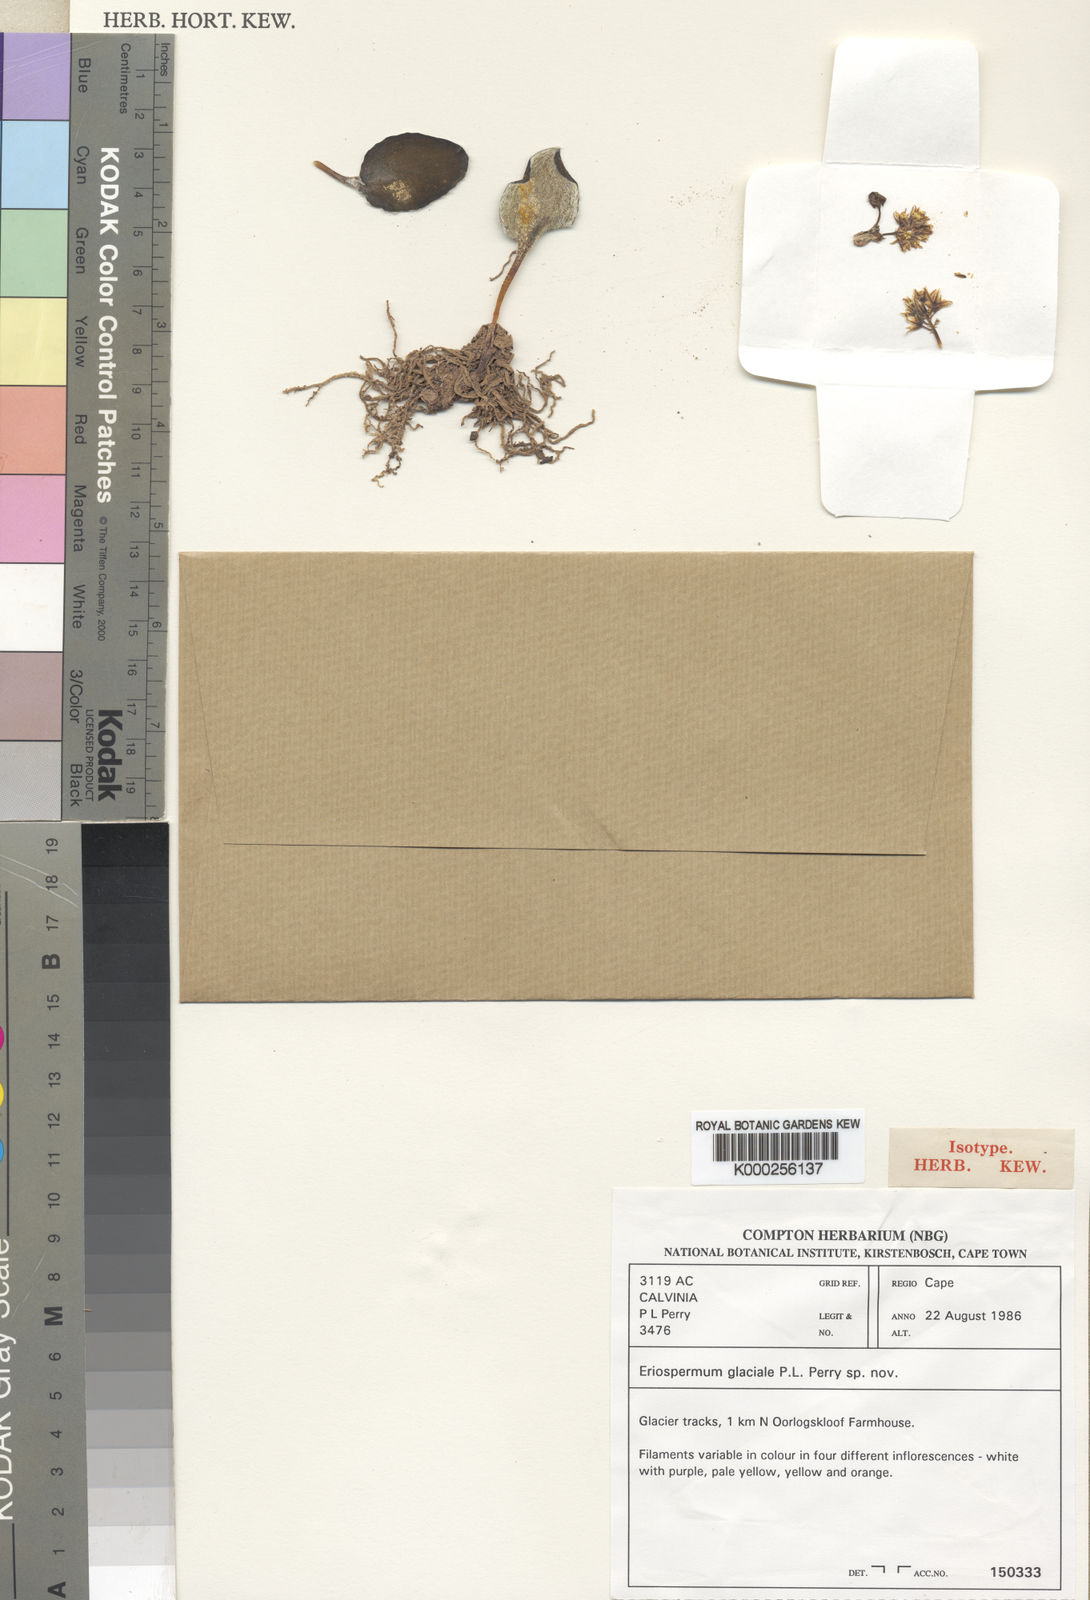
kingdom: Plantae
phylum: Tracheophyta
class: Liliopsida
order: Asparagales
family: Asparagaceae
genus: Eriospermum
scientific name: Eriospermum glaciale
